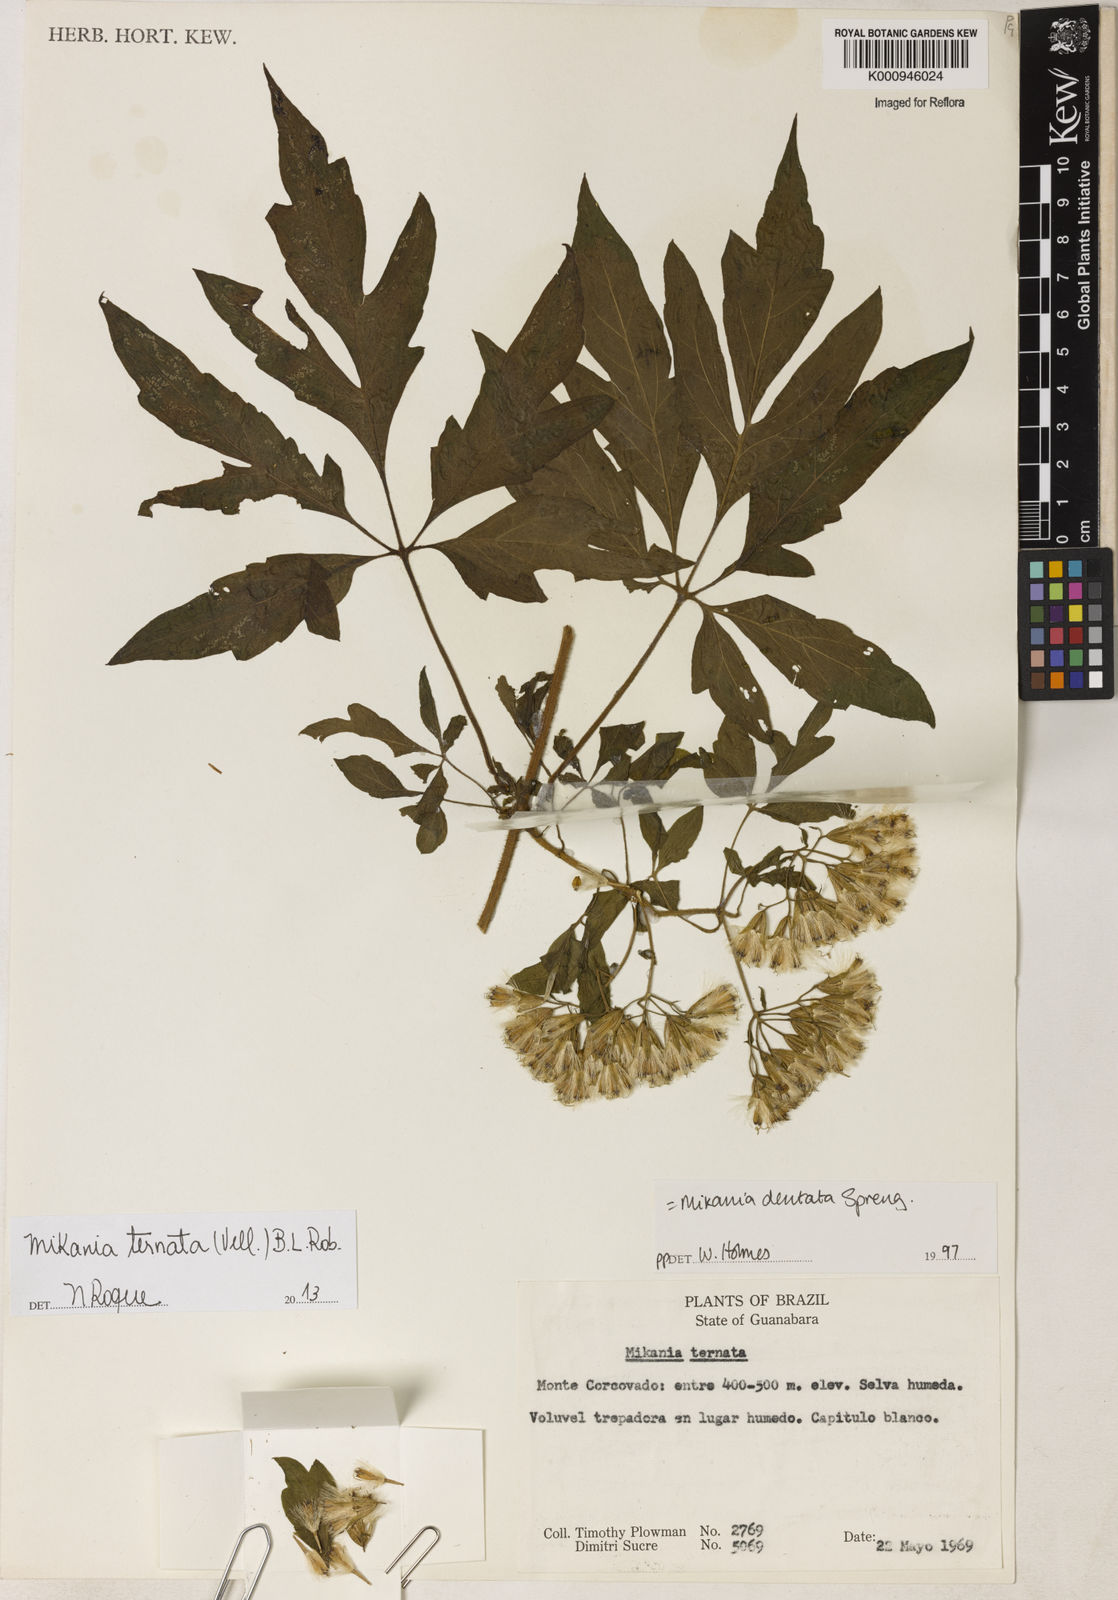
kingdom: Plantae
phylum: Tracheophyta
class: Magnoliopsida
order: Asterales
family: Asteraceae
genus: Mikania
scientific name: Mikania ternata
